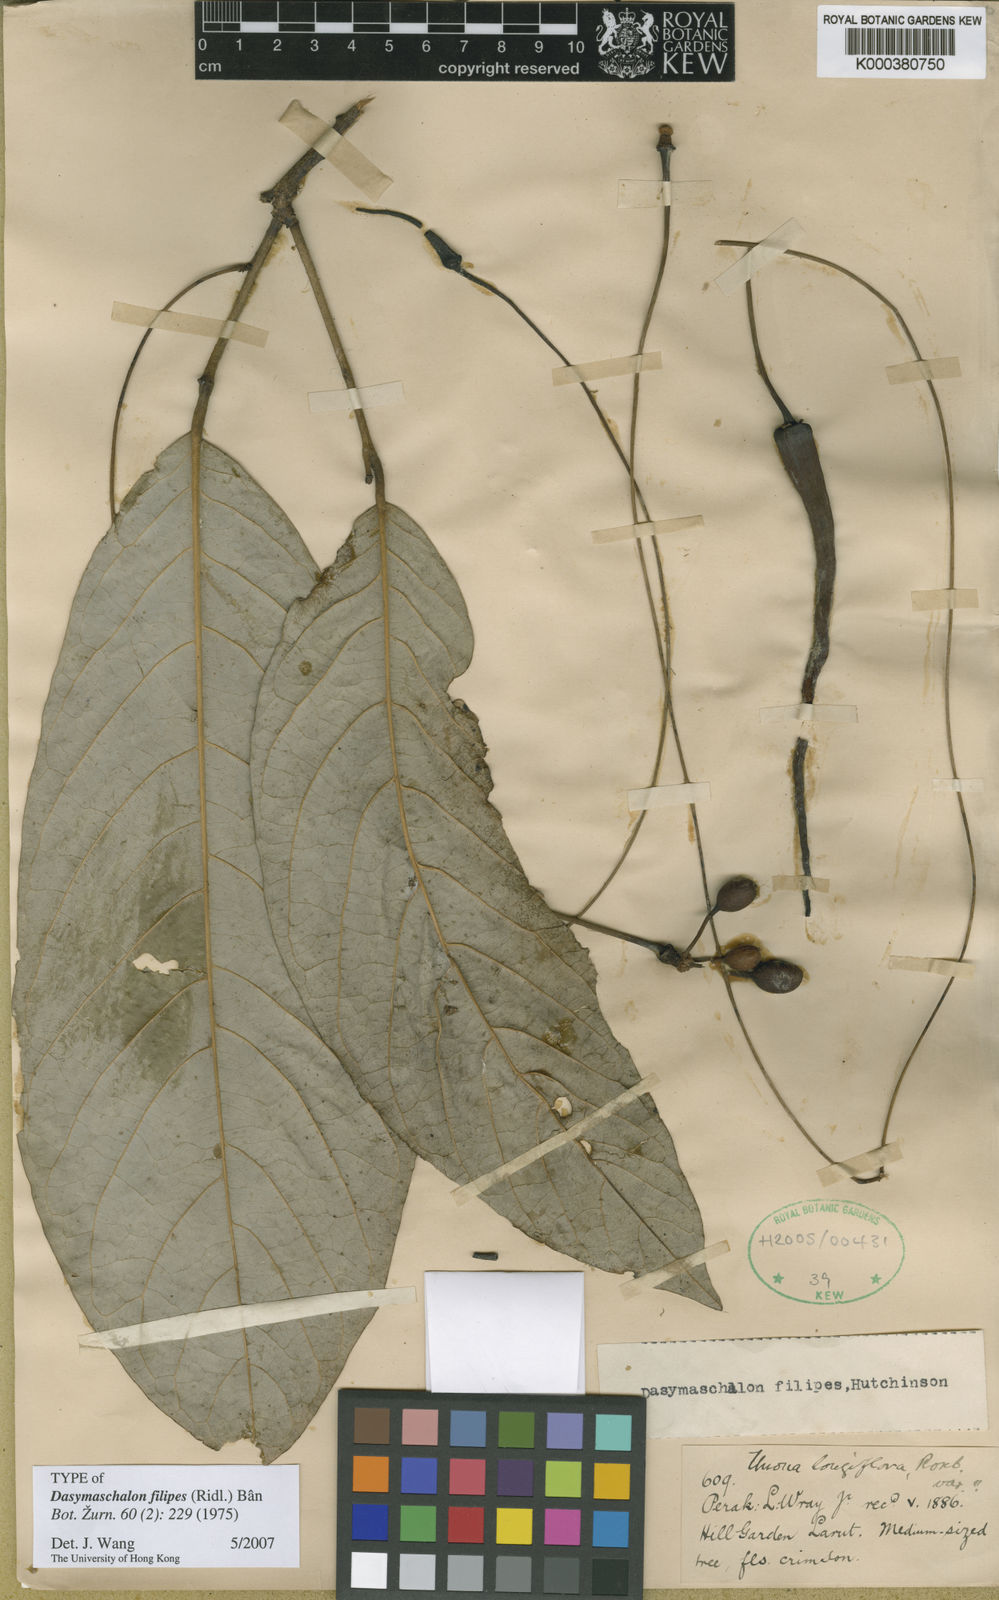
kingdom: Plantae
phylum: Tracheophyta
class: Magnoliopsida
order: Magnoliales
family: Annonaceae
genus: Dasymaschalon
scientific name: Dasymaschalon
